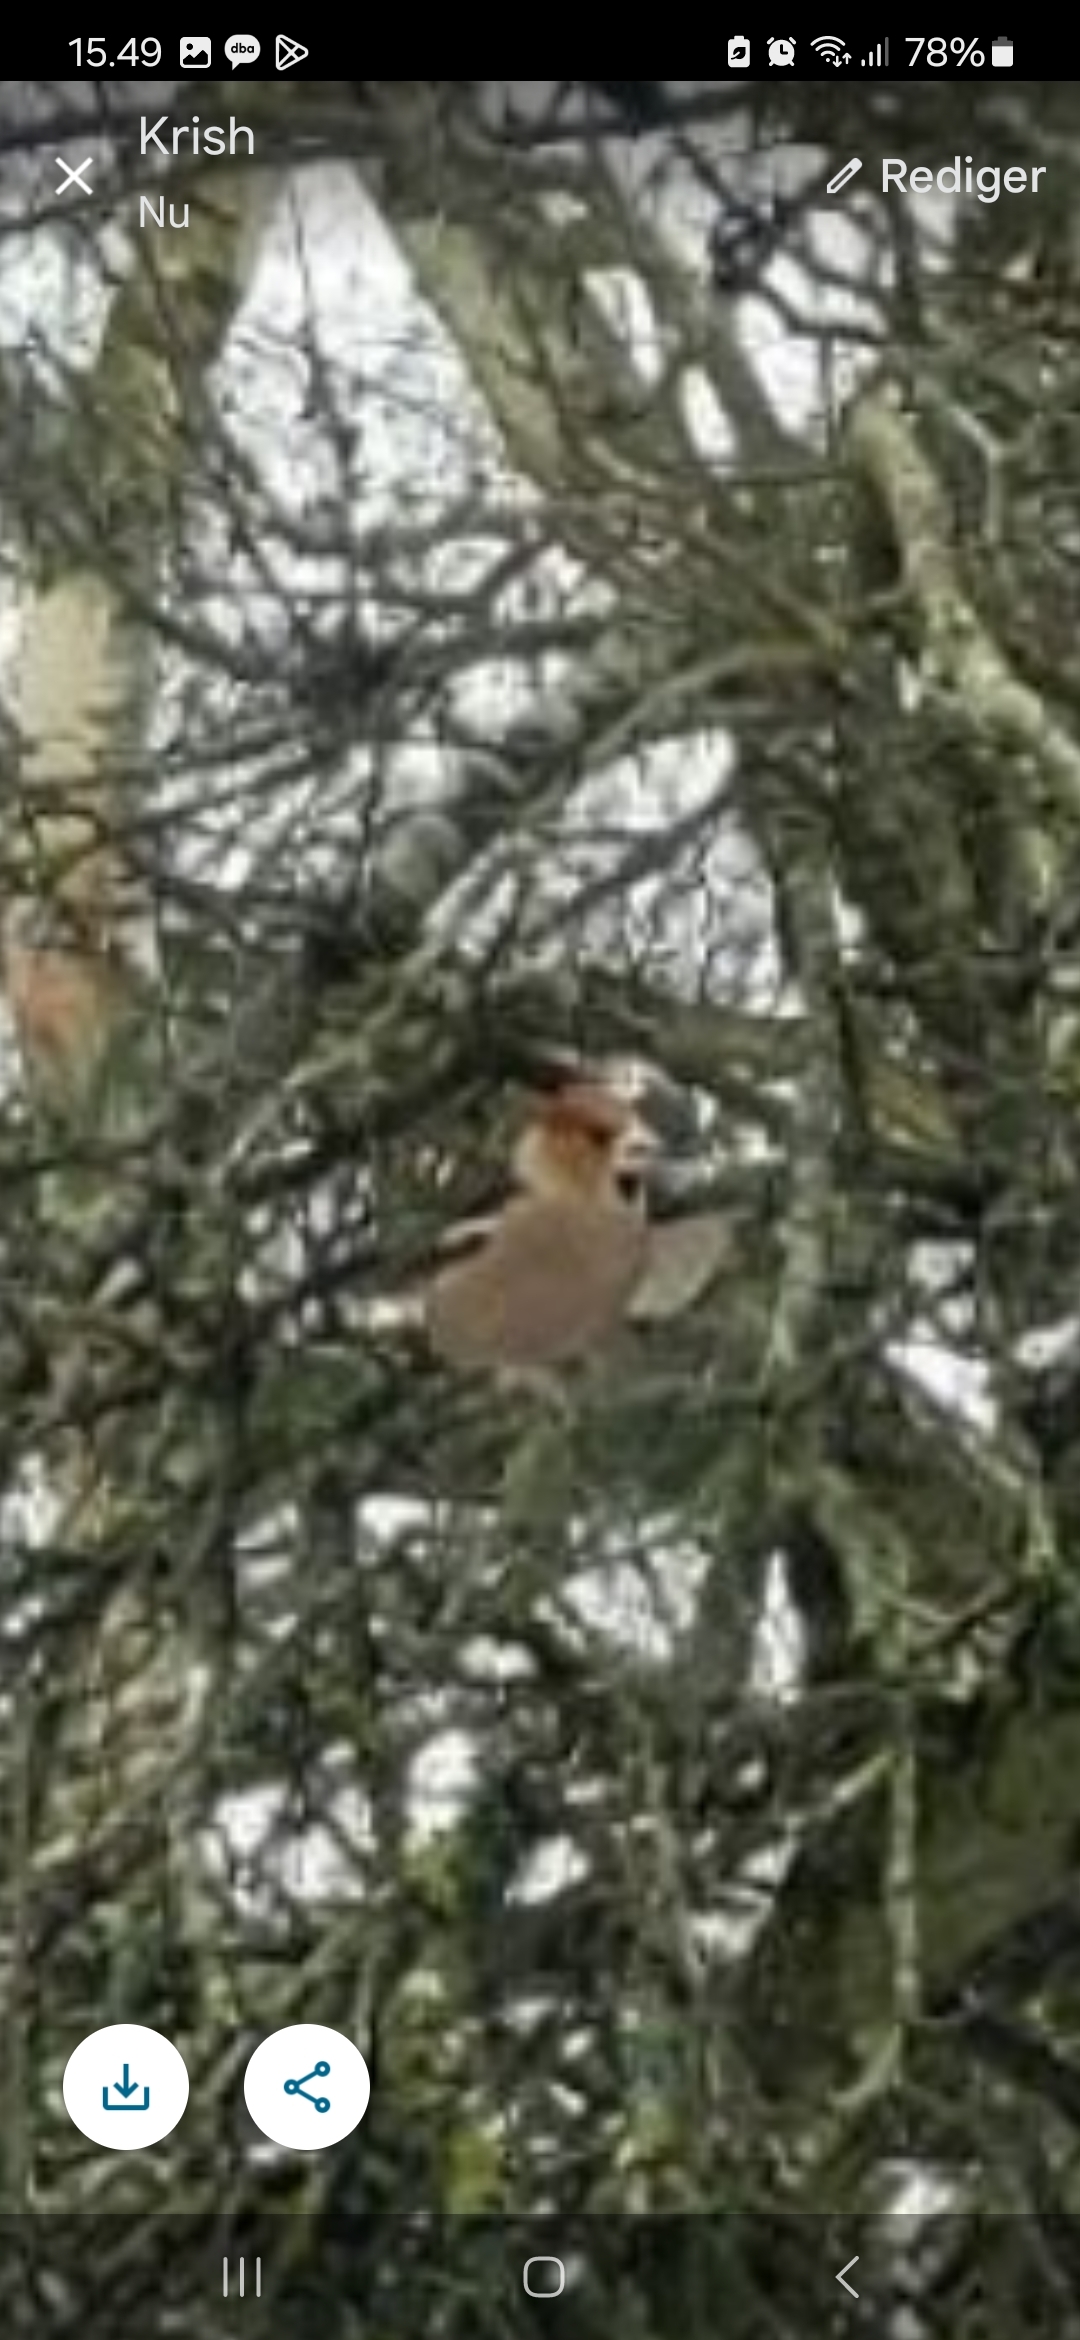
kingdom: Animalia
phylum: Chordata
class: Aves
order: Passeriformes
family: Fringillidae
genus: Coccothraustes
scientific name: Coccothraustes coccothraustes
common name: Kernebider
